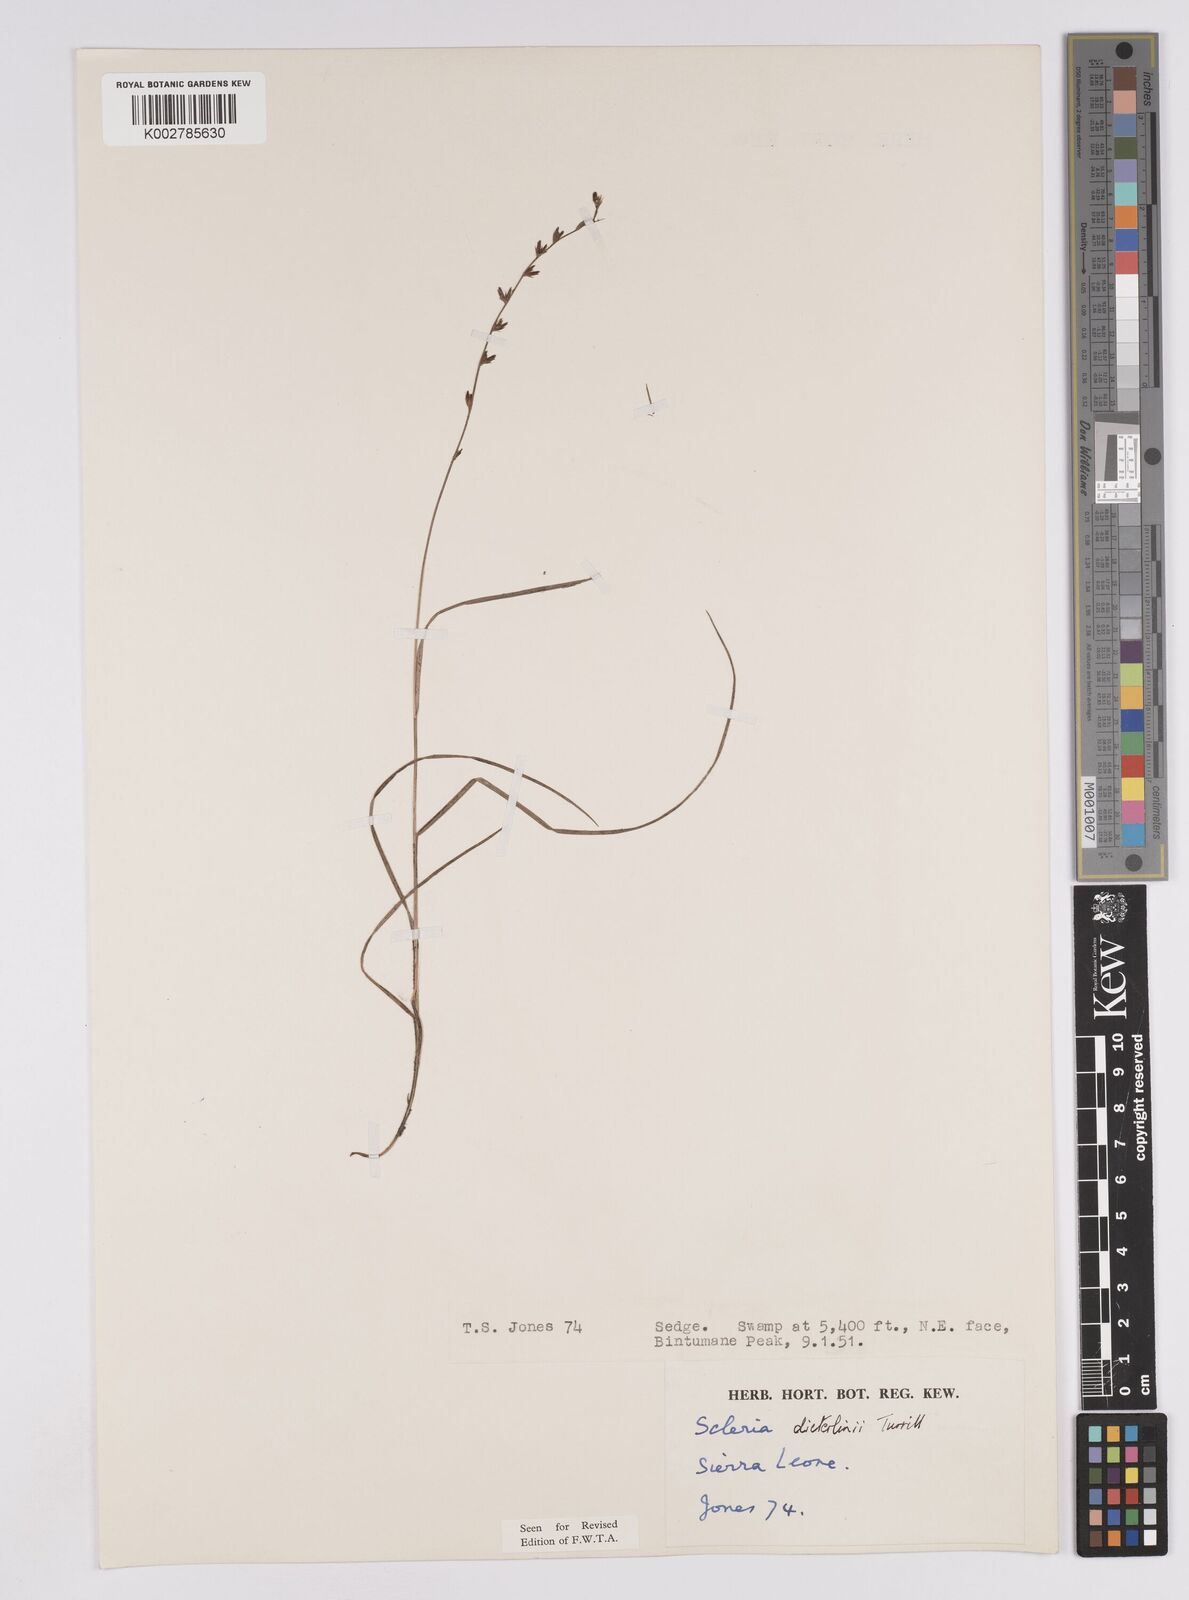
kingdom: Plantae
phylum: Tracheophyta
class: Liliopsida
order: Poales
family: Cyperaceae
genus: Scleria
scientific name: Scleria flexuosa
